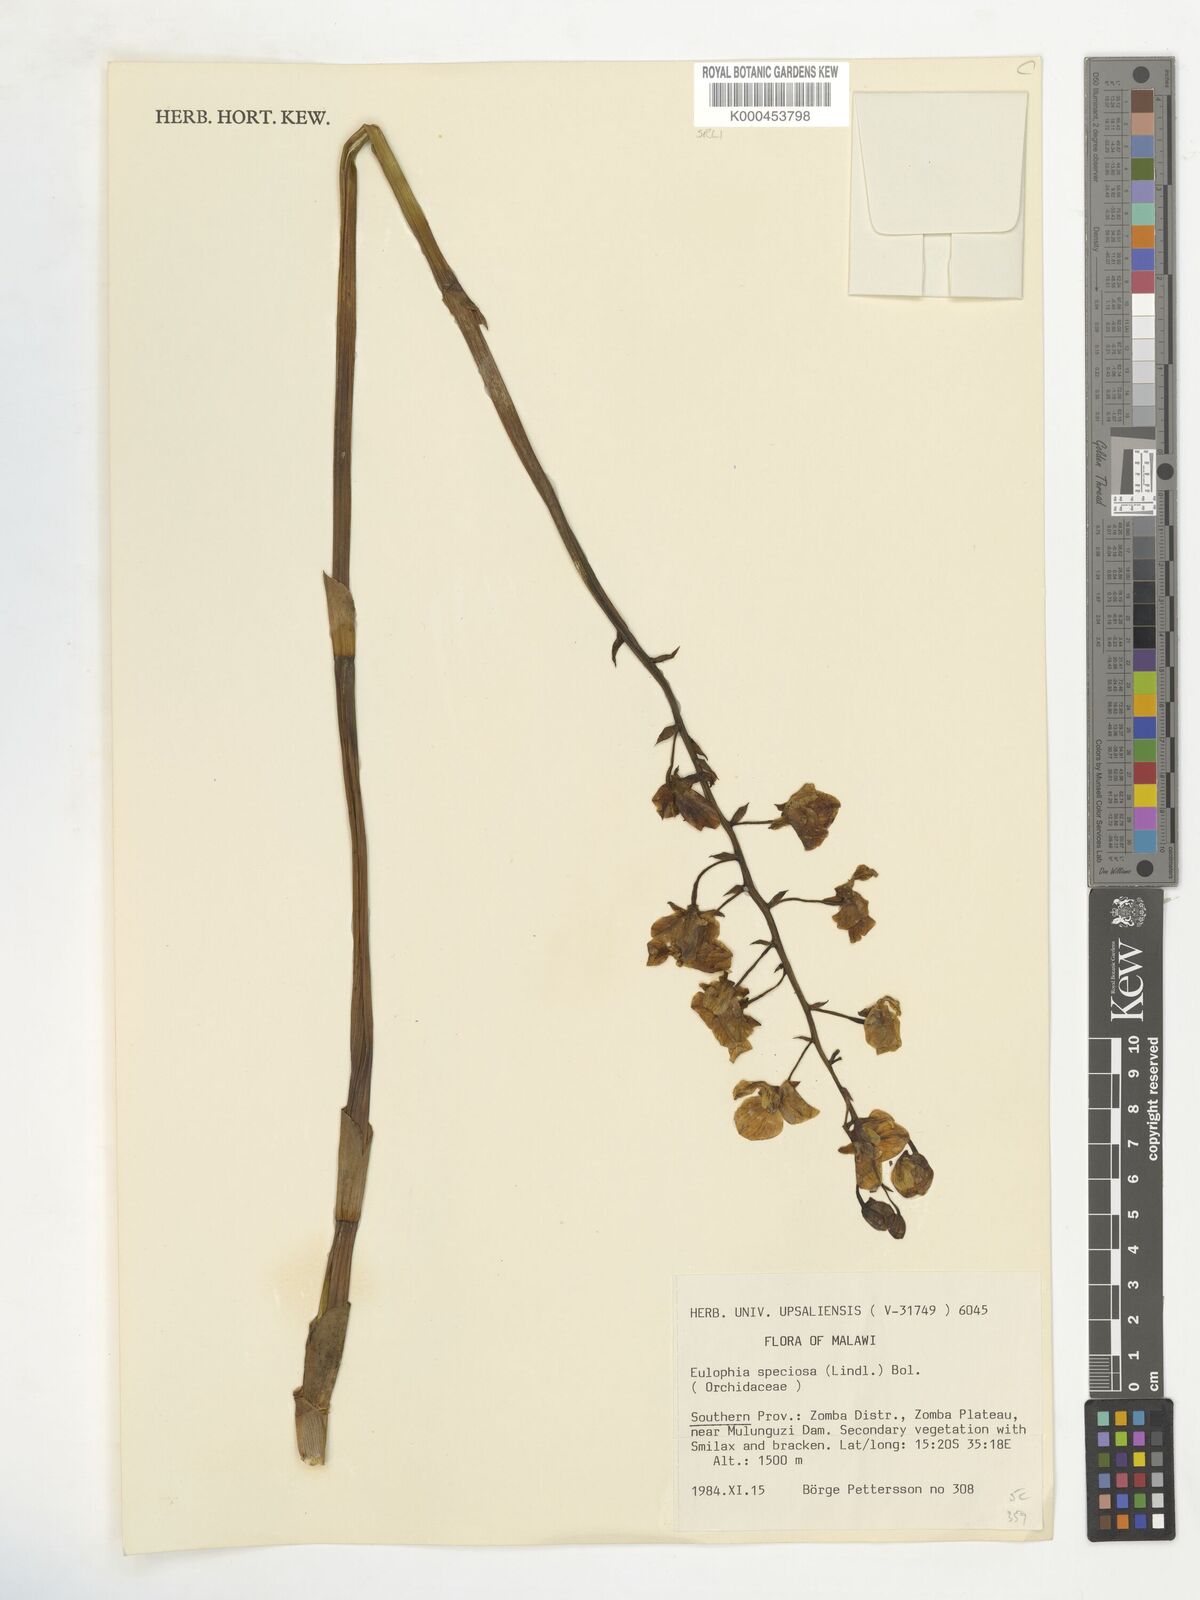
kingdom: Plantae
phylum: Tracheophyta
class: Liliopsida
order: Asparagales
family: Orchidaceae
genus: Eulophia
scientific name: Eulophia speciosa
